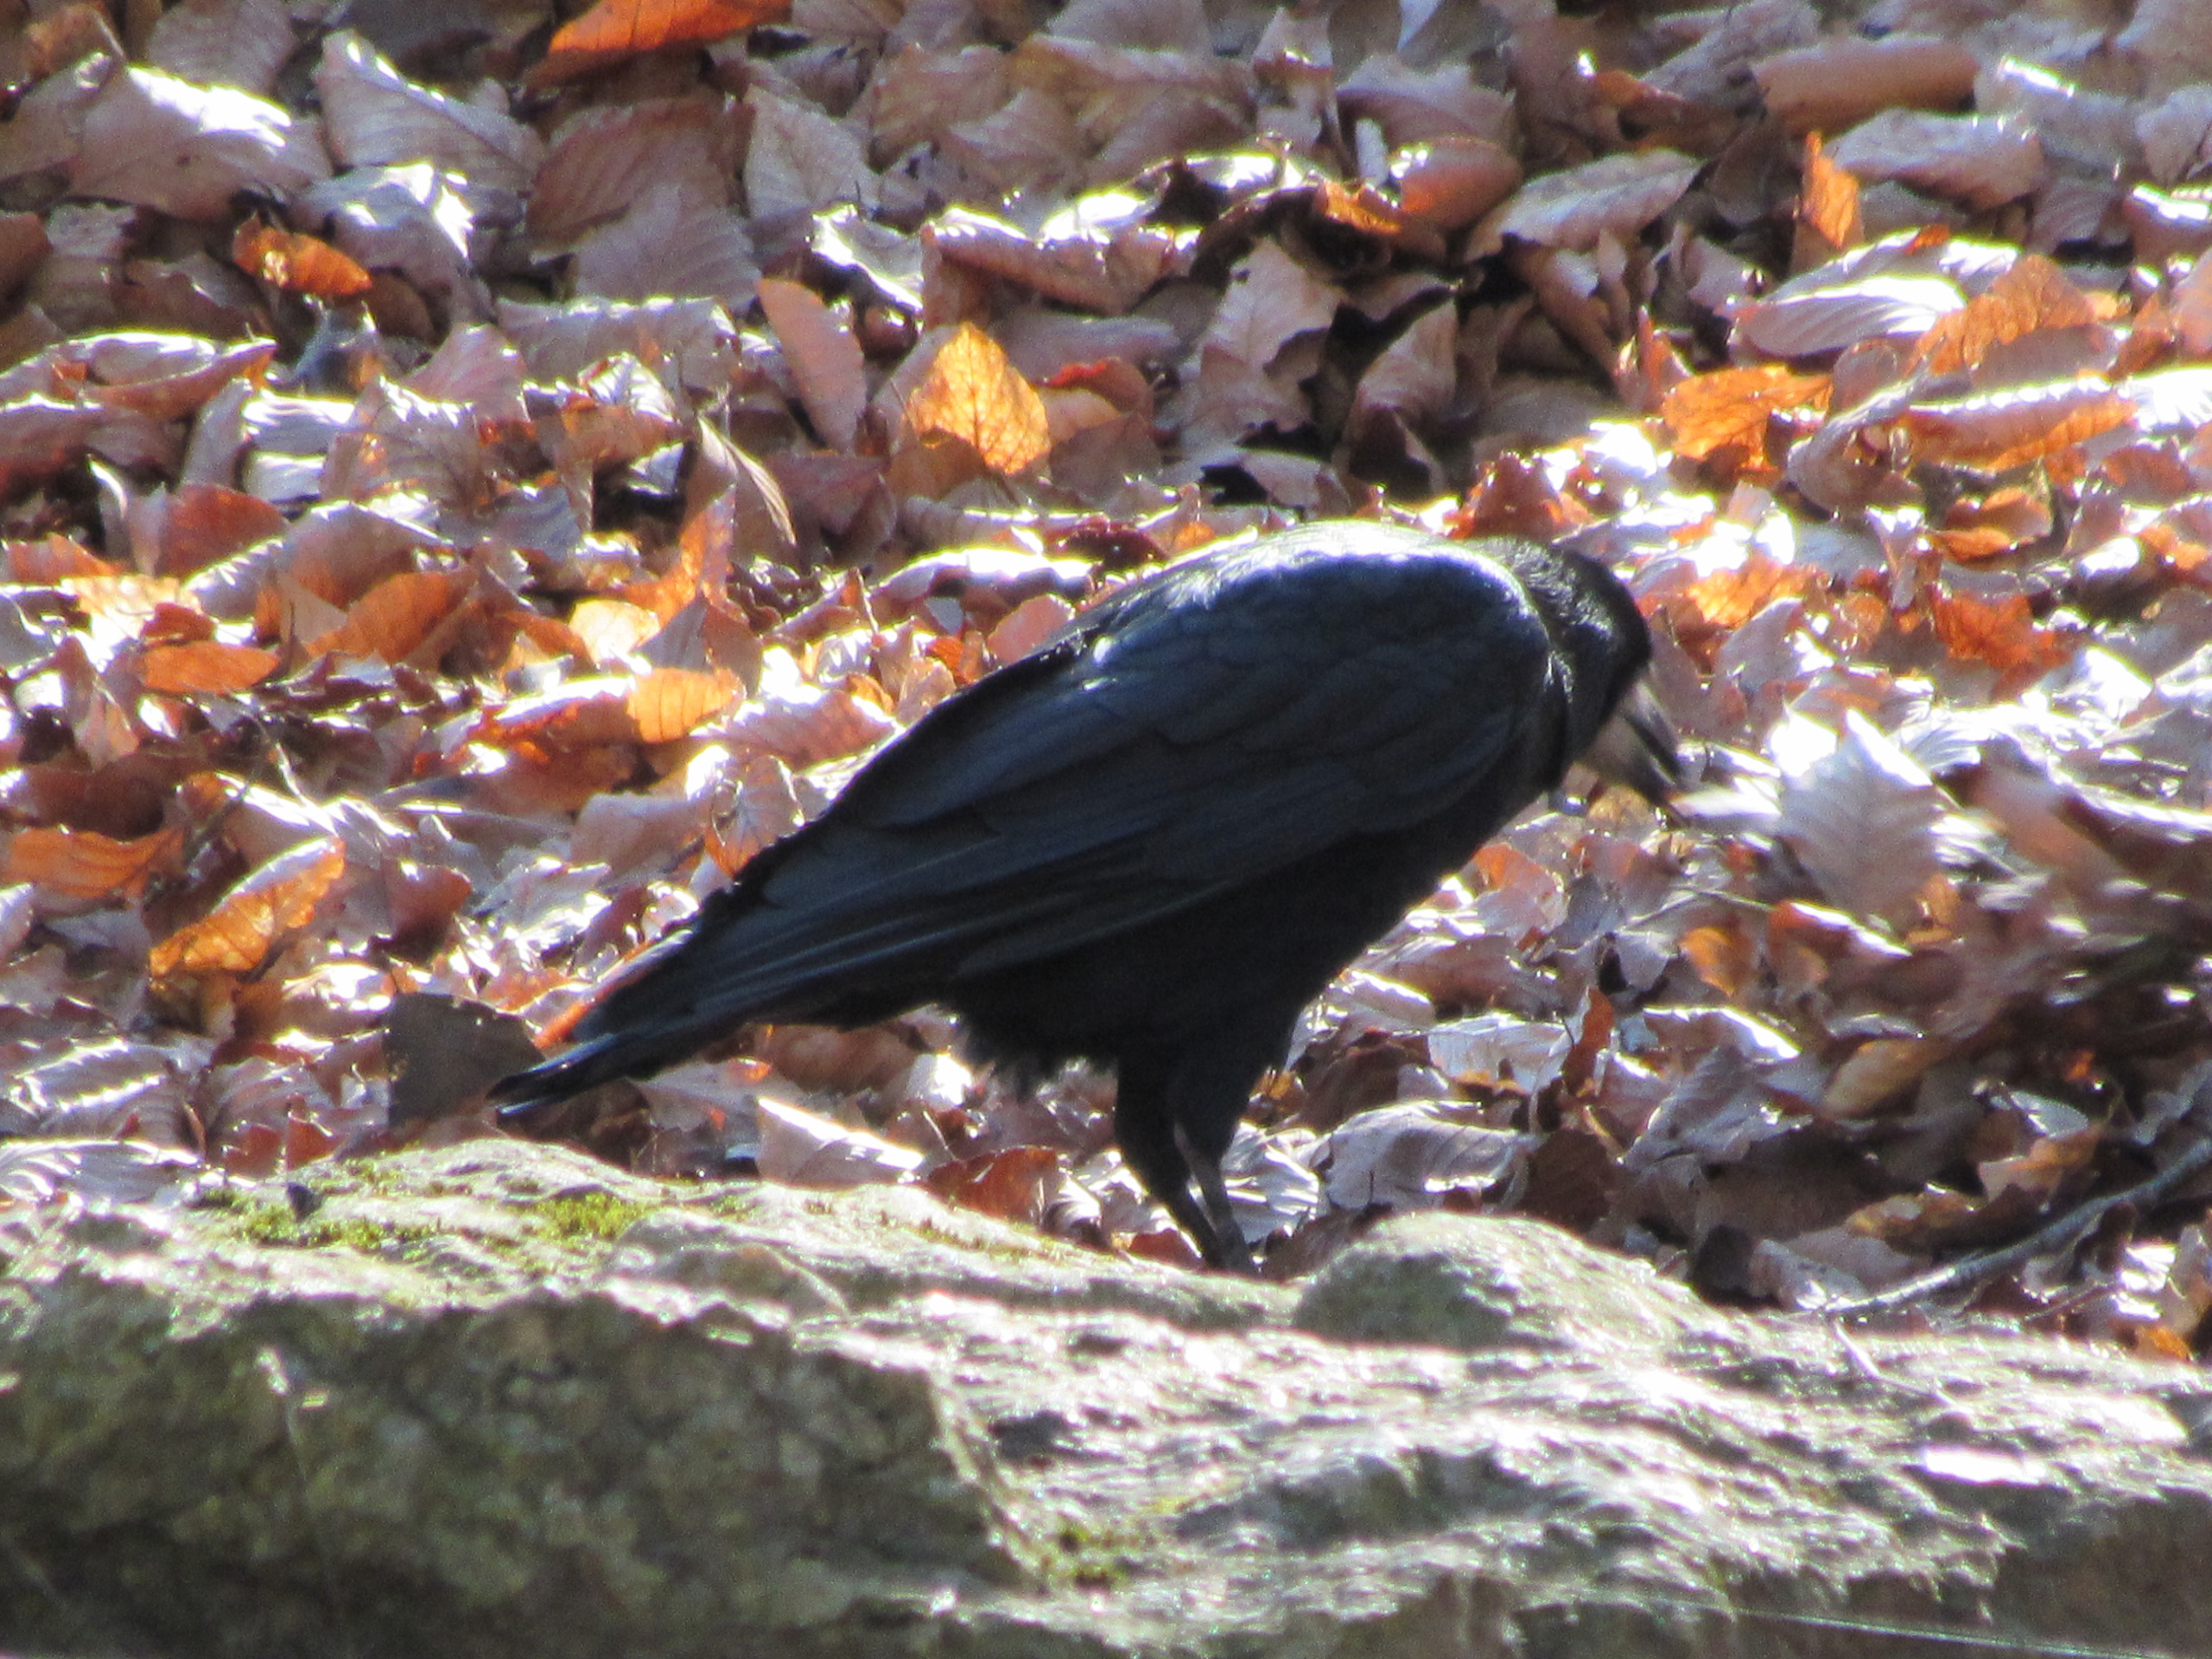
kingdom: Animalia
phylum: Chordata
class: Aves
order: Passeriformes
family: Corvidae
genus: Corvus
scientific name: Corvus frugilegus
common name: Råge
